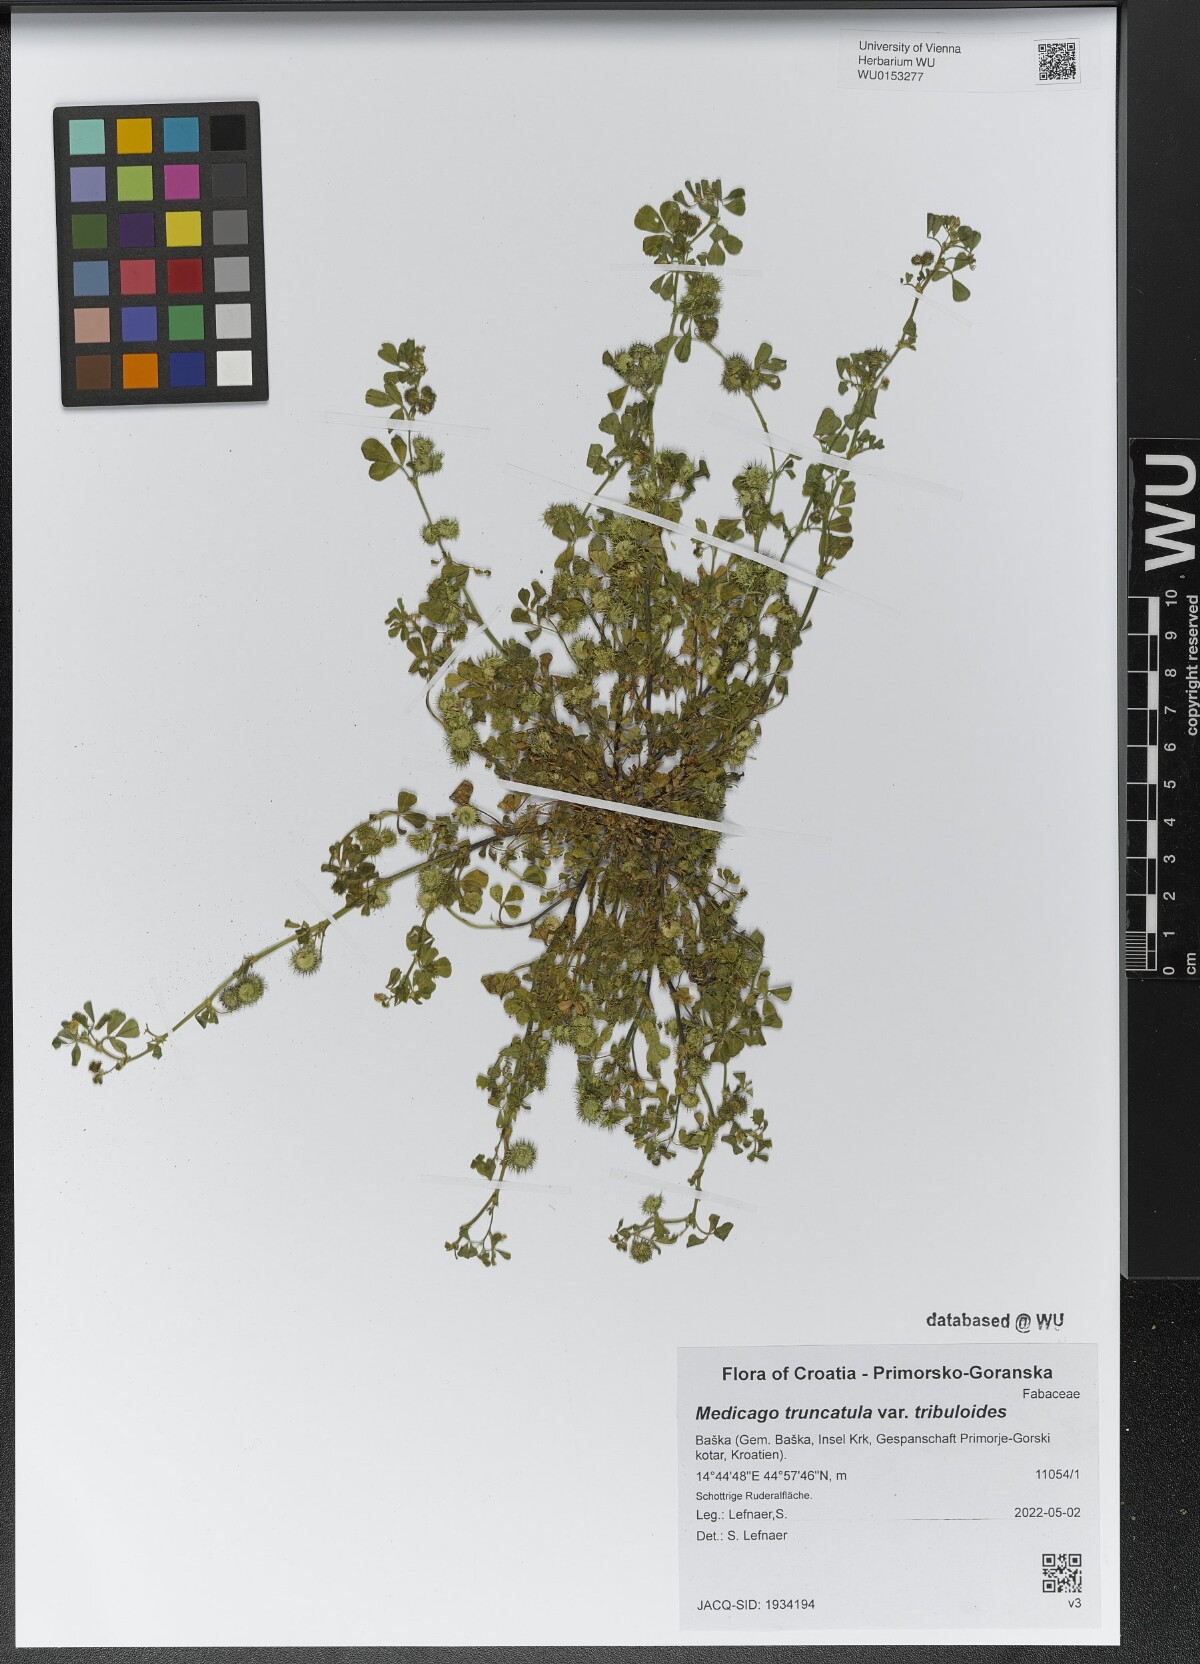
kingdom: Plantae
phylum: Tracheophyta
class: Magnoliopsida
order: Fabales
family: Fabaceae
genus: Medicago
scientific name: Medicago truncatula
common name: Strong-spined medick
